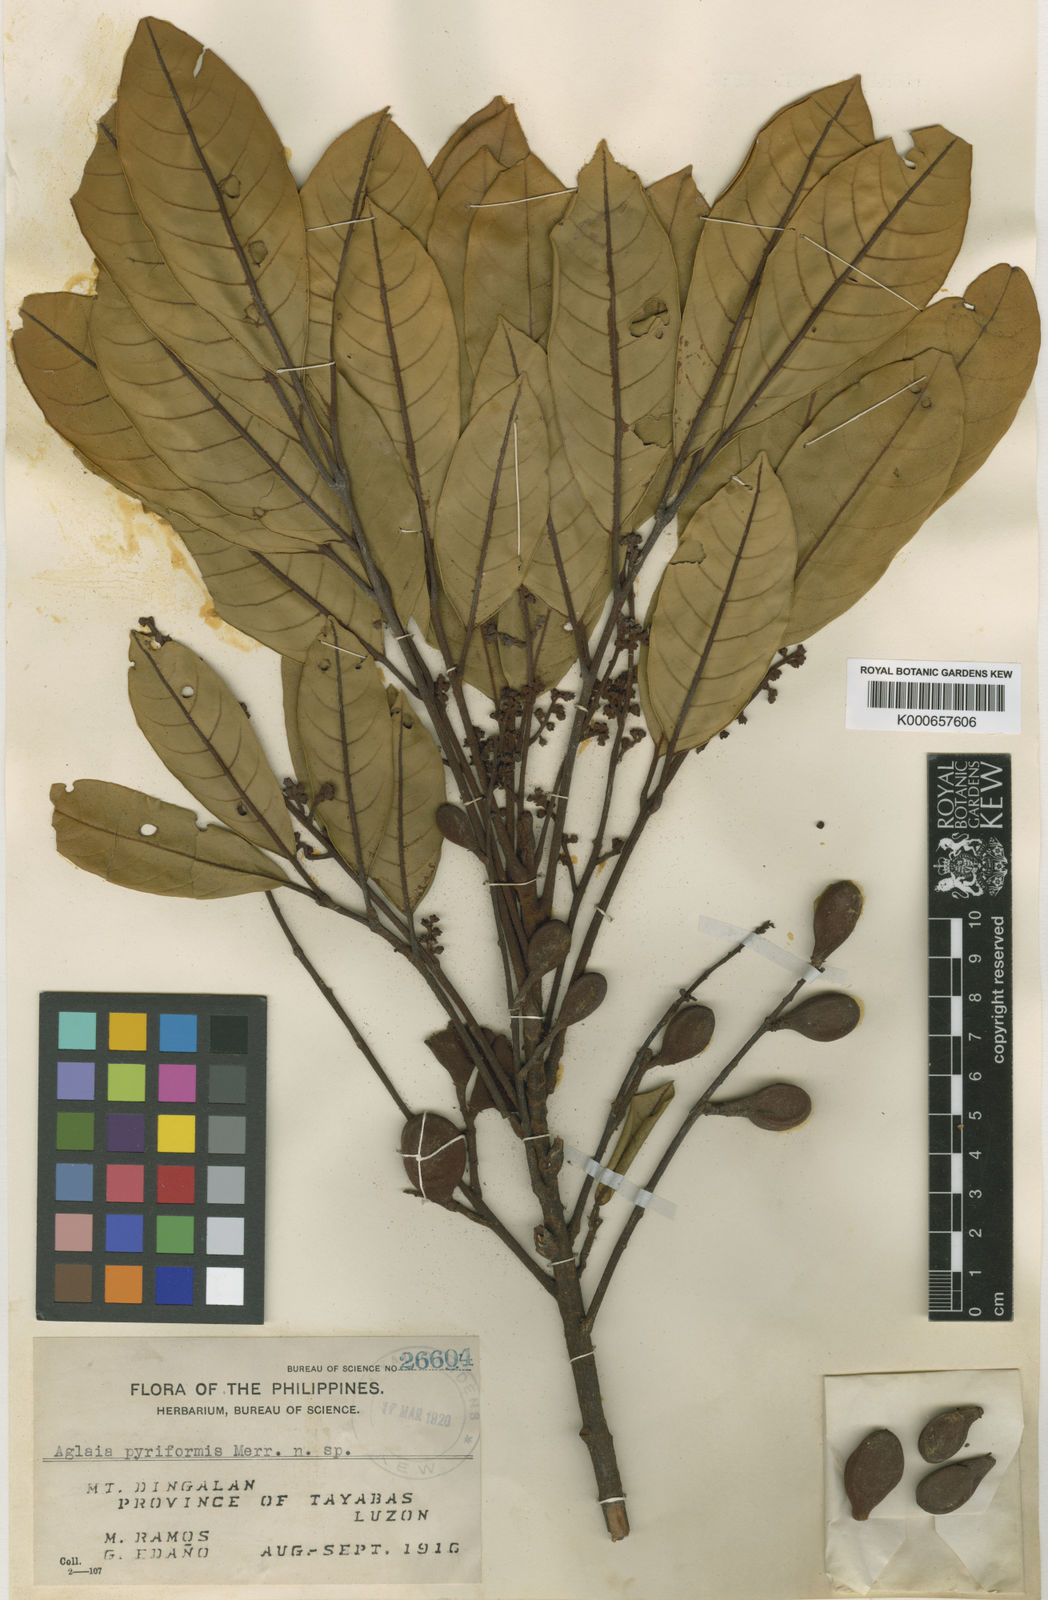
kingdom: Plantae
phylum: Tracheophyta
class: Magnoliopsida
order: Sapindales
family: Meliaceae
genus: Aglaia
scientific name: Aglaia pyriformis
